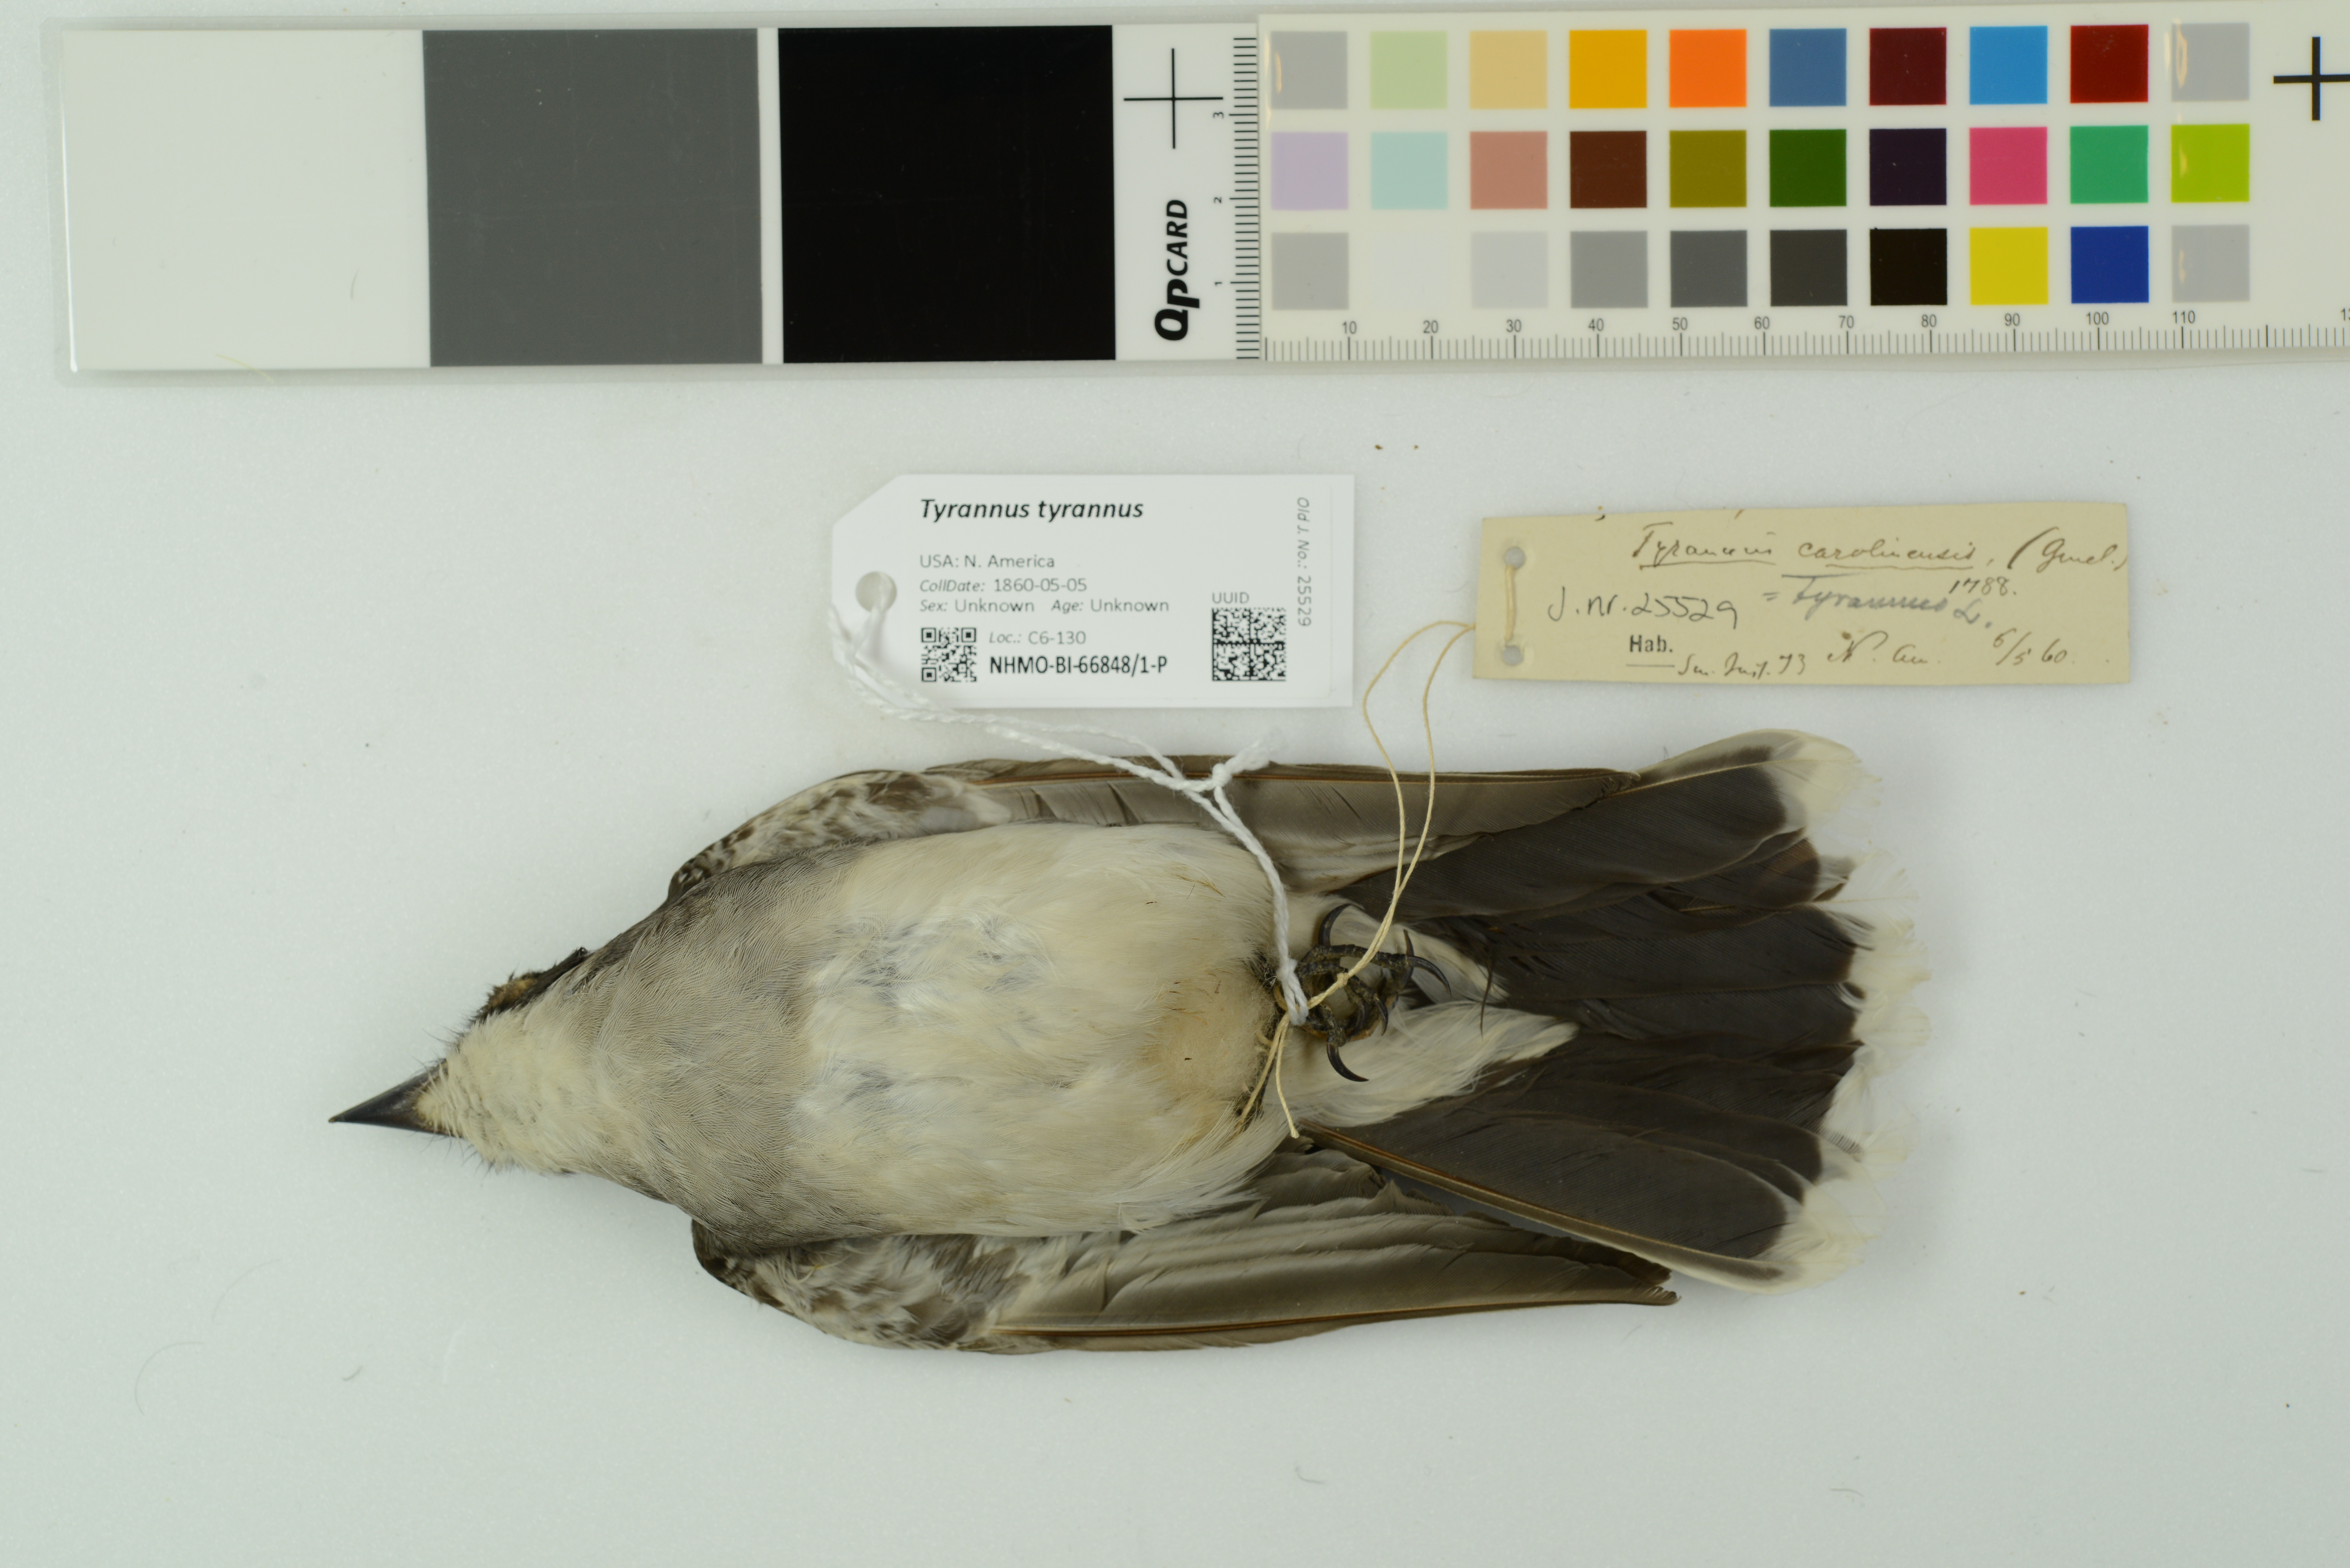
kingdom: Animalia
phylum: Chordata
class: Aves
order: Passeriformes
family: Tyrannidae
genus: Tyrannus
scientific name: Tyrannus tyrannus
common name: Eastern kingbird
